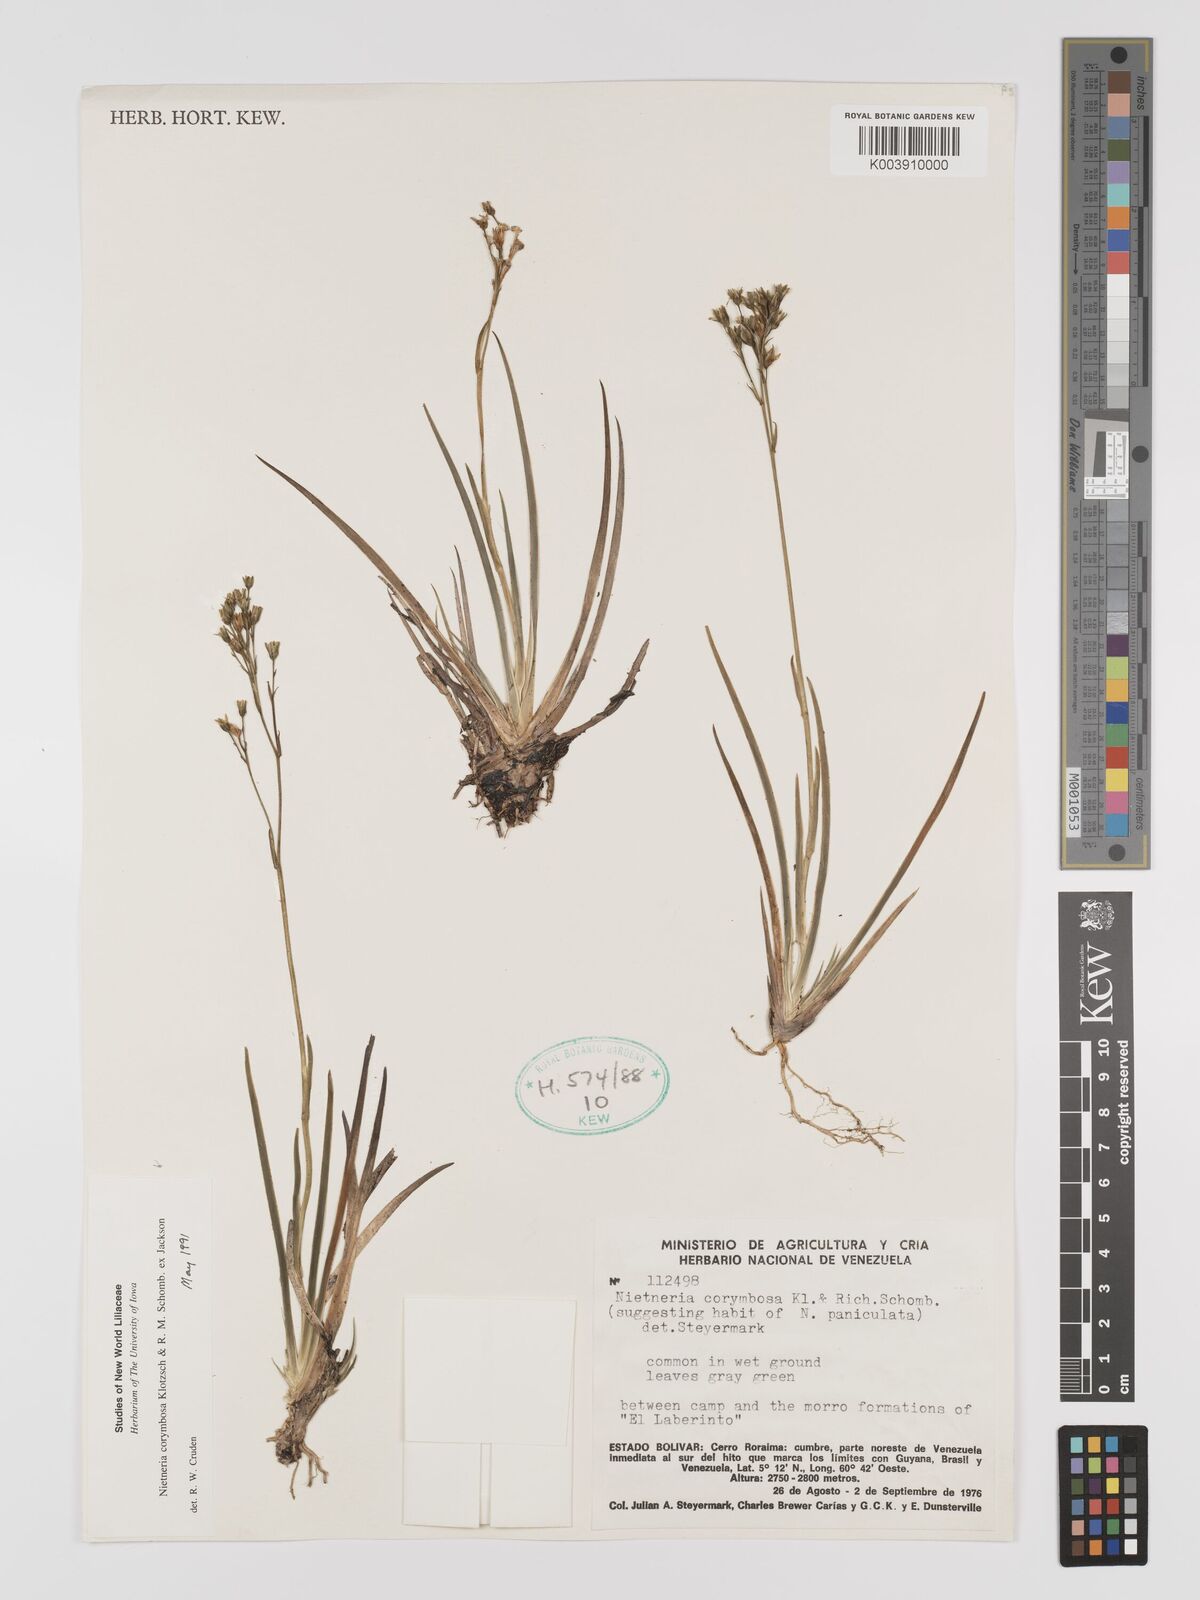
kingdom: Plantae
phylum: Tracheophyta
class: Liliopsida
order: Dioscoreales
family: Nartheciaceae
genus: Nietneria
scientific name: Nietneria corymbosa
